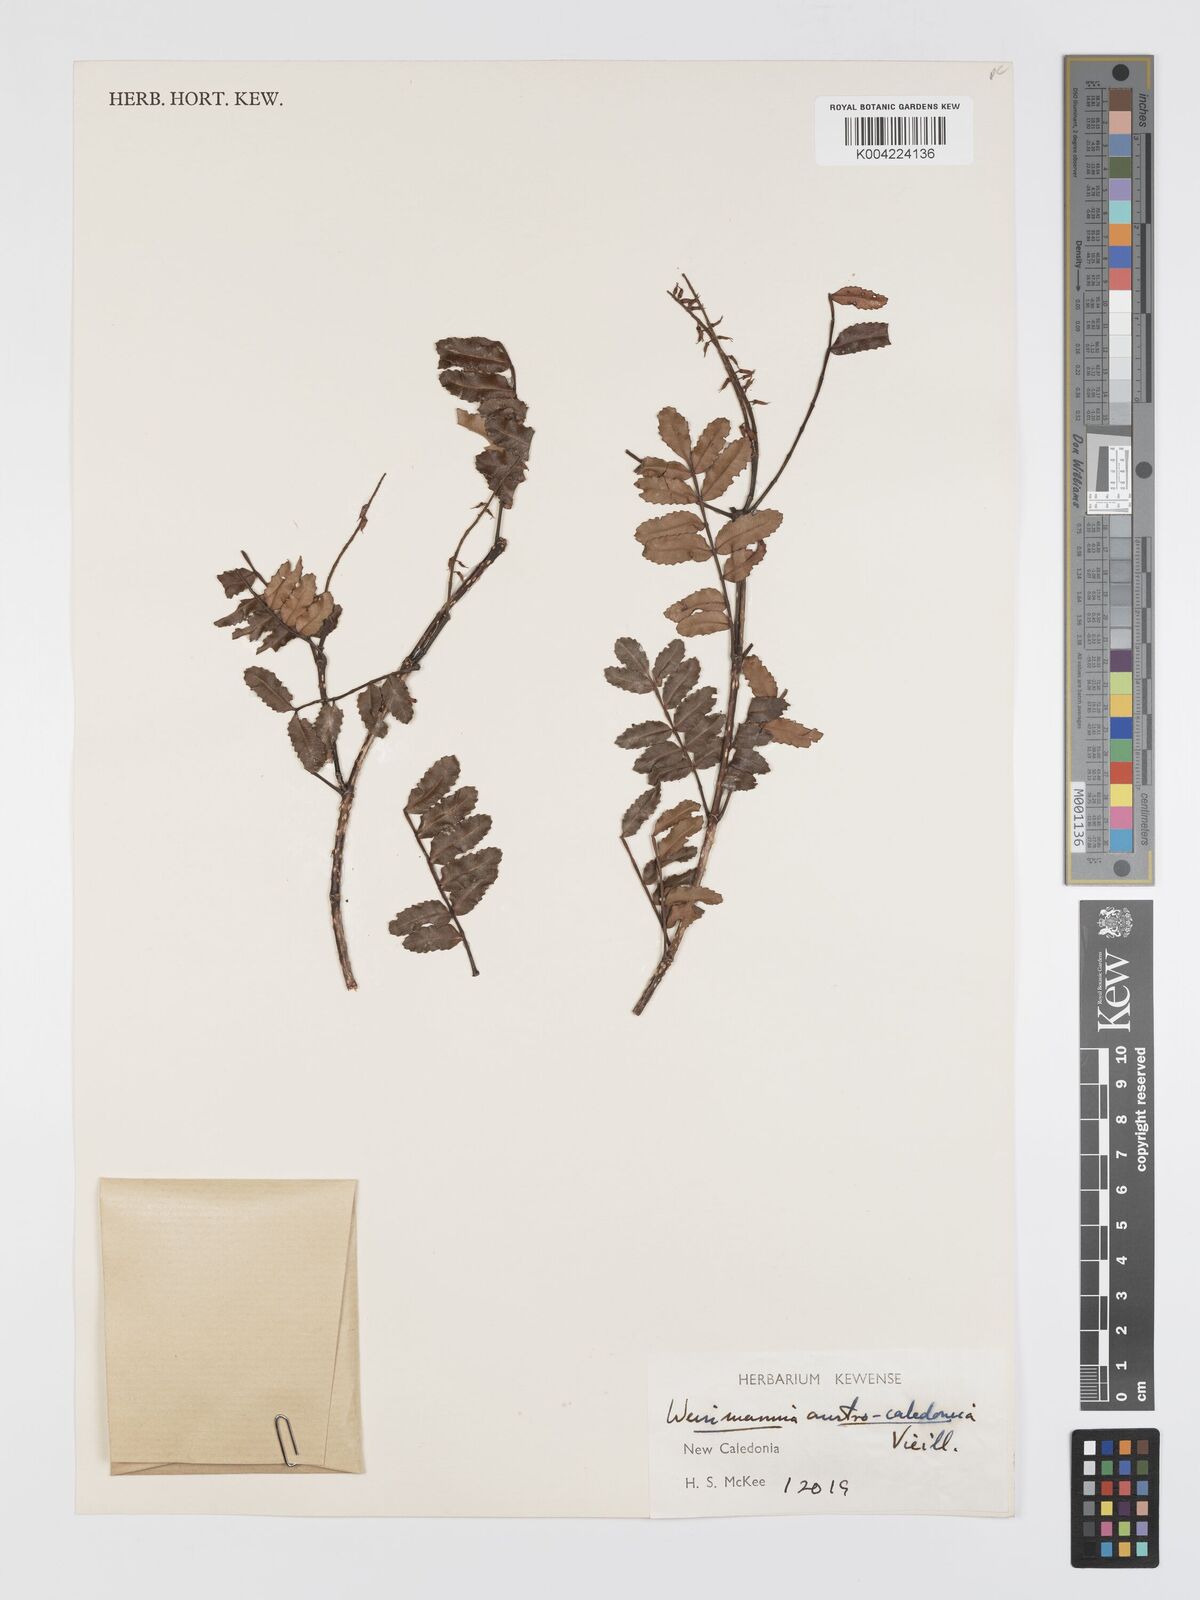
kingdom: Plantae
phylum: Tracheophyta
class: Magnoliopsida
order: Oxalidales
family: Cunoniaceae
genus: Cunonia
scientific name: Cunonia austrocaledonica
